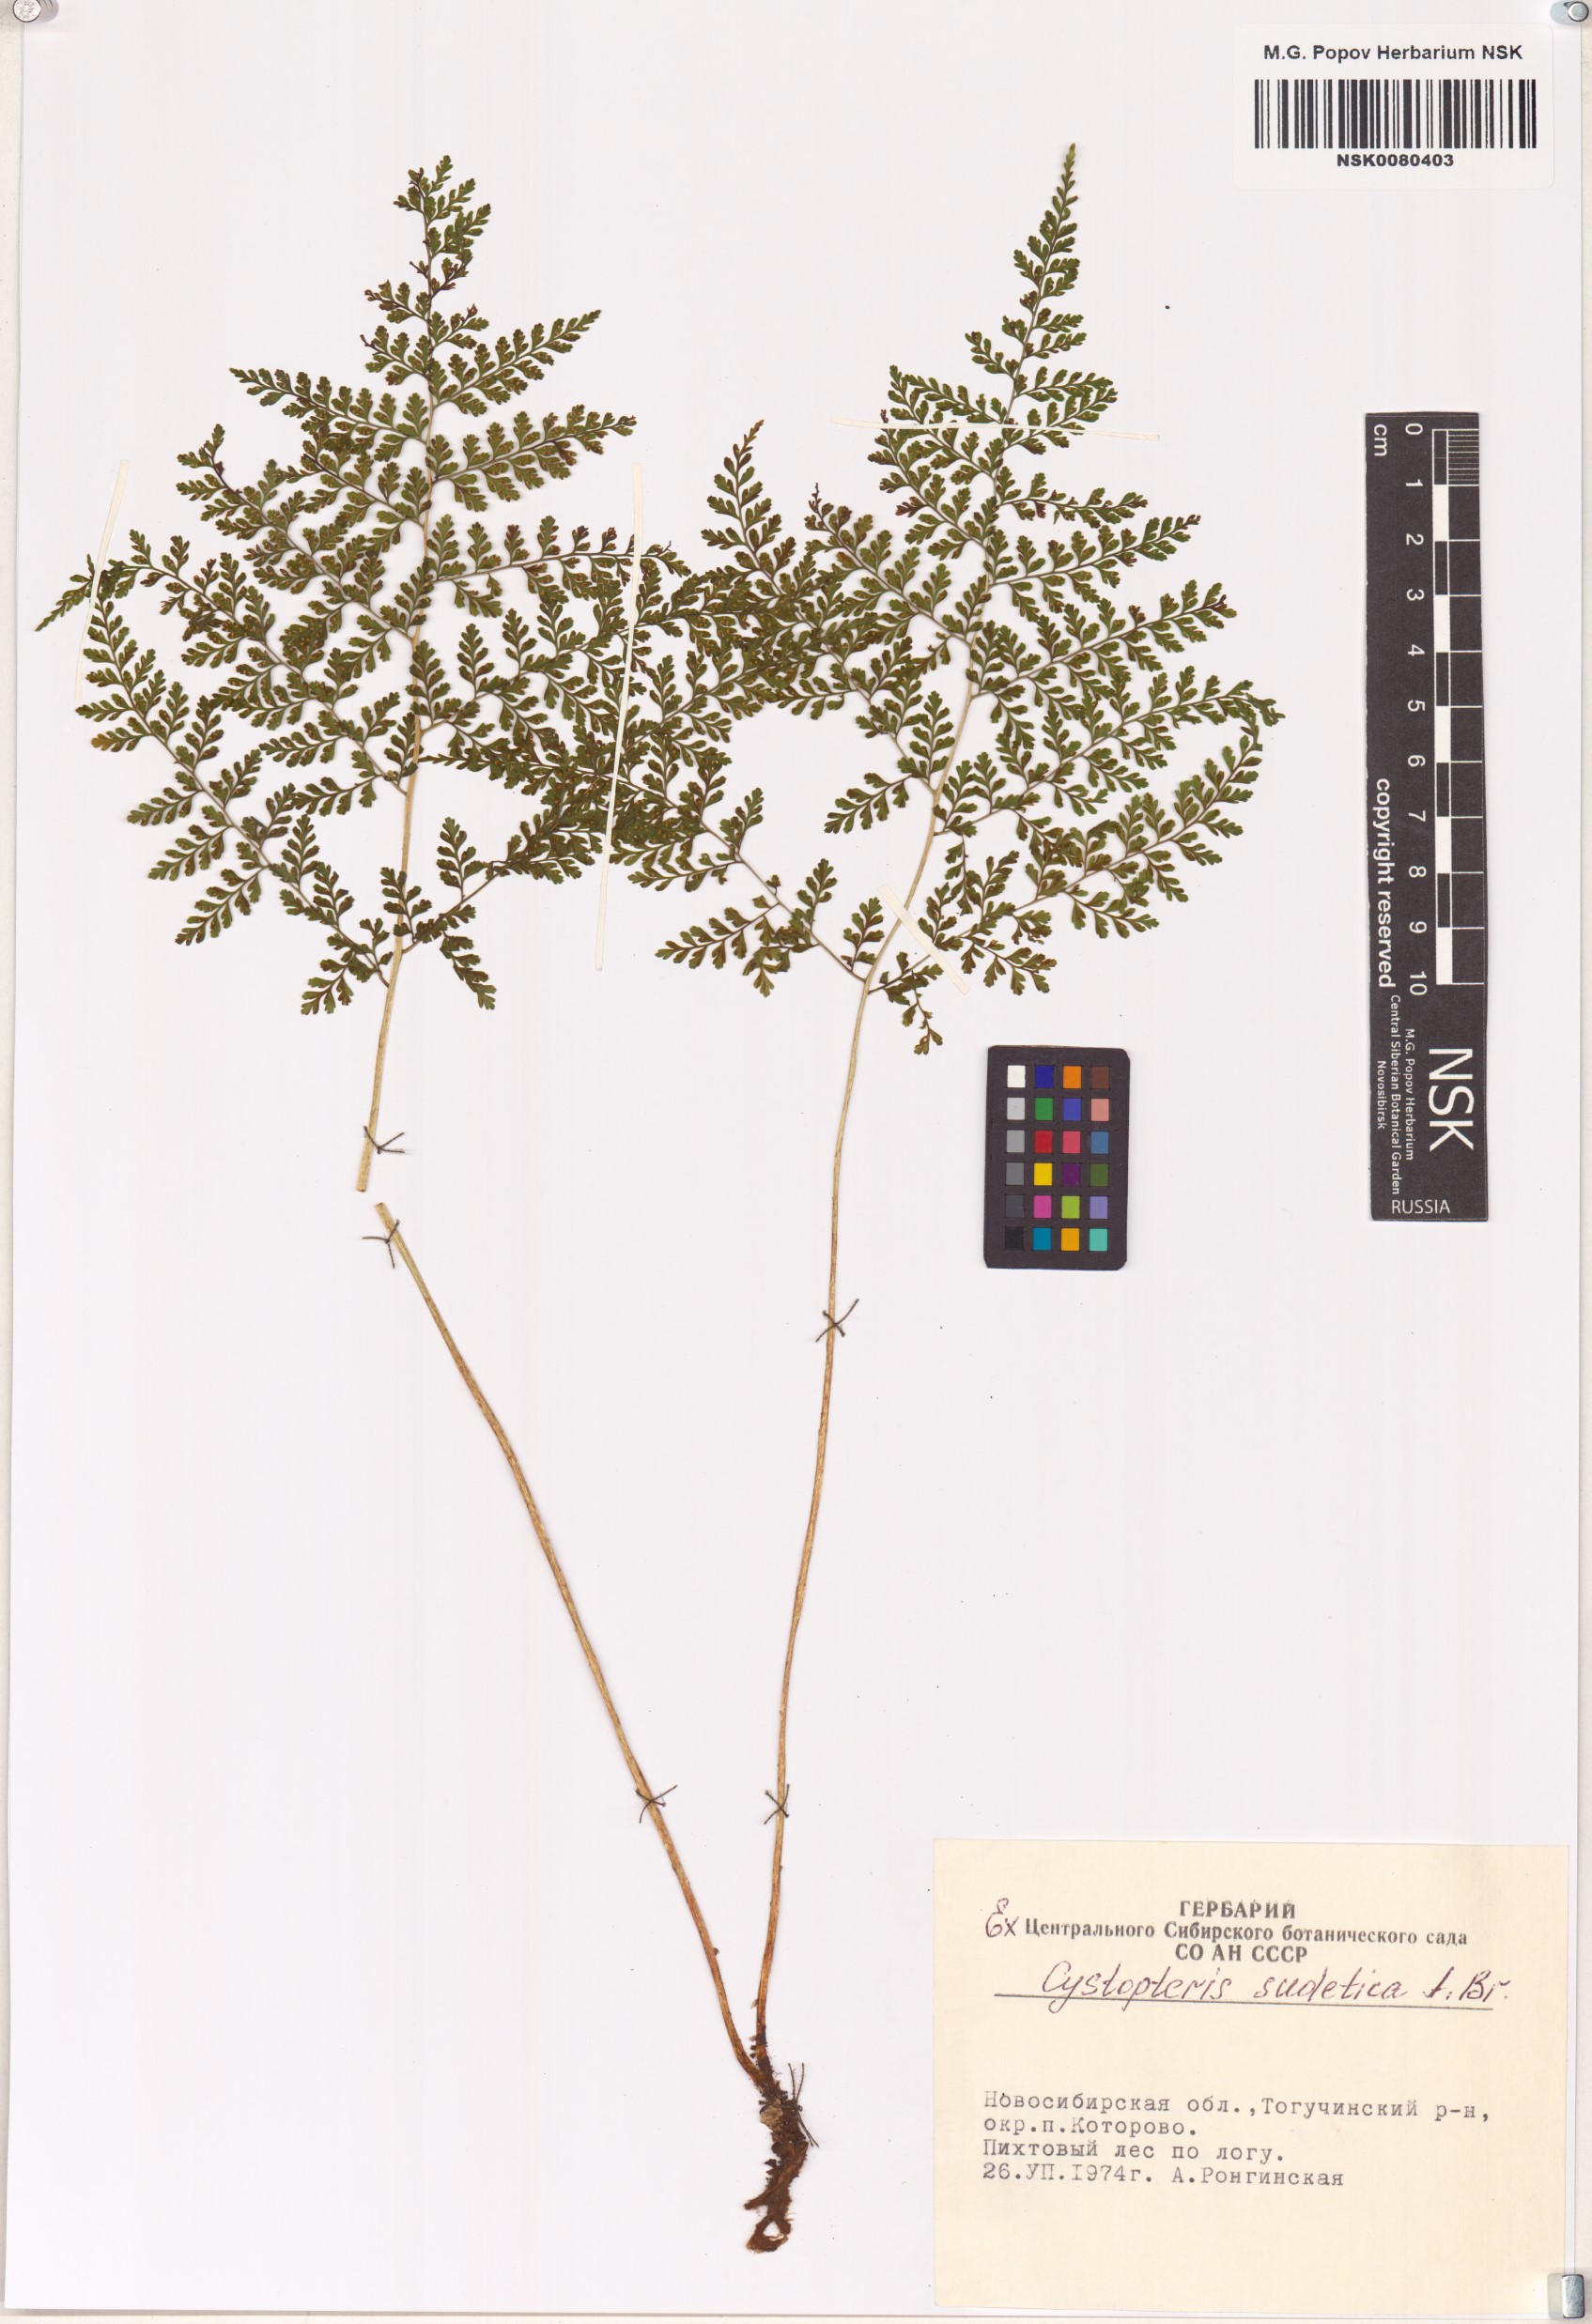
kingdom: Plantae
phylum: Tracheophyta
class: Polypodiopsida
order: Polypodiales
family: Cystopteridaceae
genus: Cystopteris
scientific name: Cystopteris sudetica
